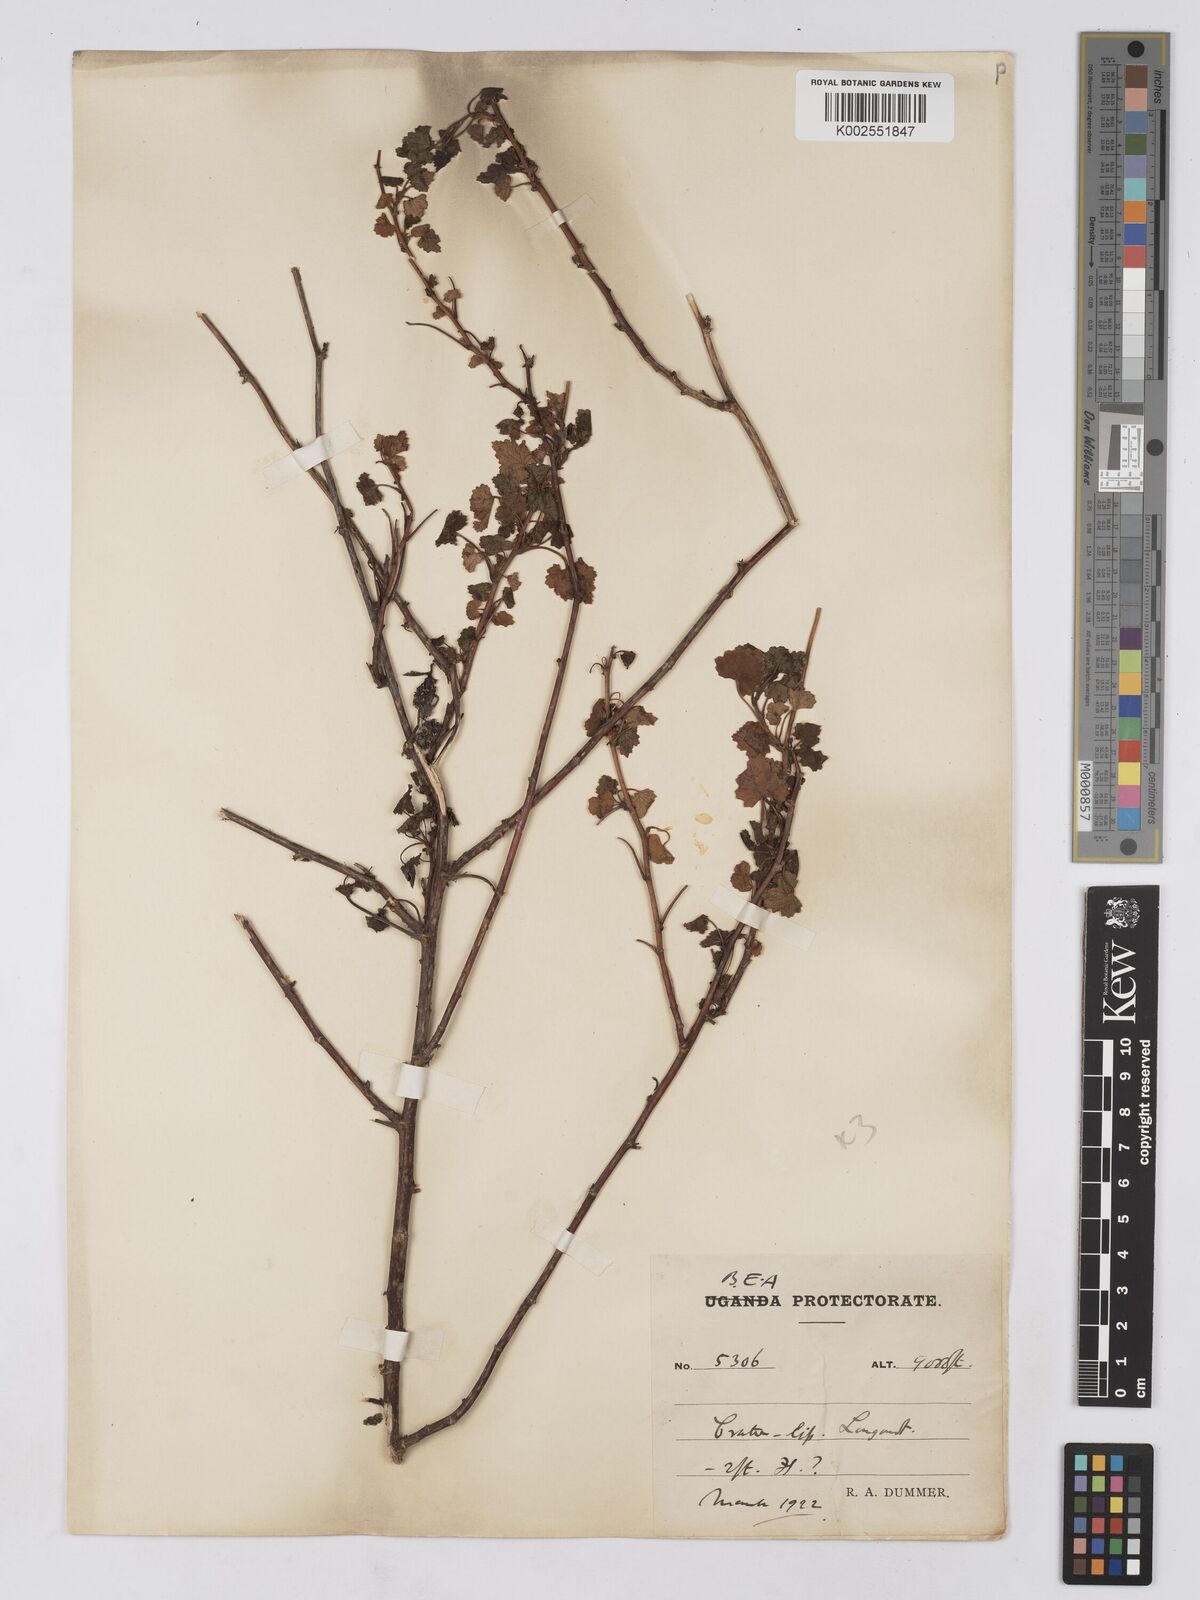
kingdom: Plantae
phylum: Tracheophyta
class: Magnoliopsida
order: Asterales
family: Asteraceae
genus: Cineraria
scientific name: Cineraria deltoidea
